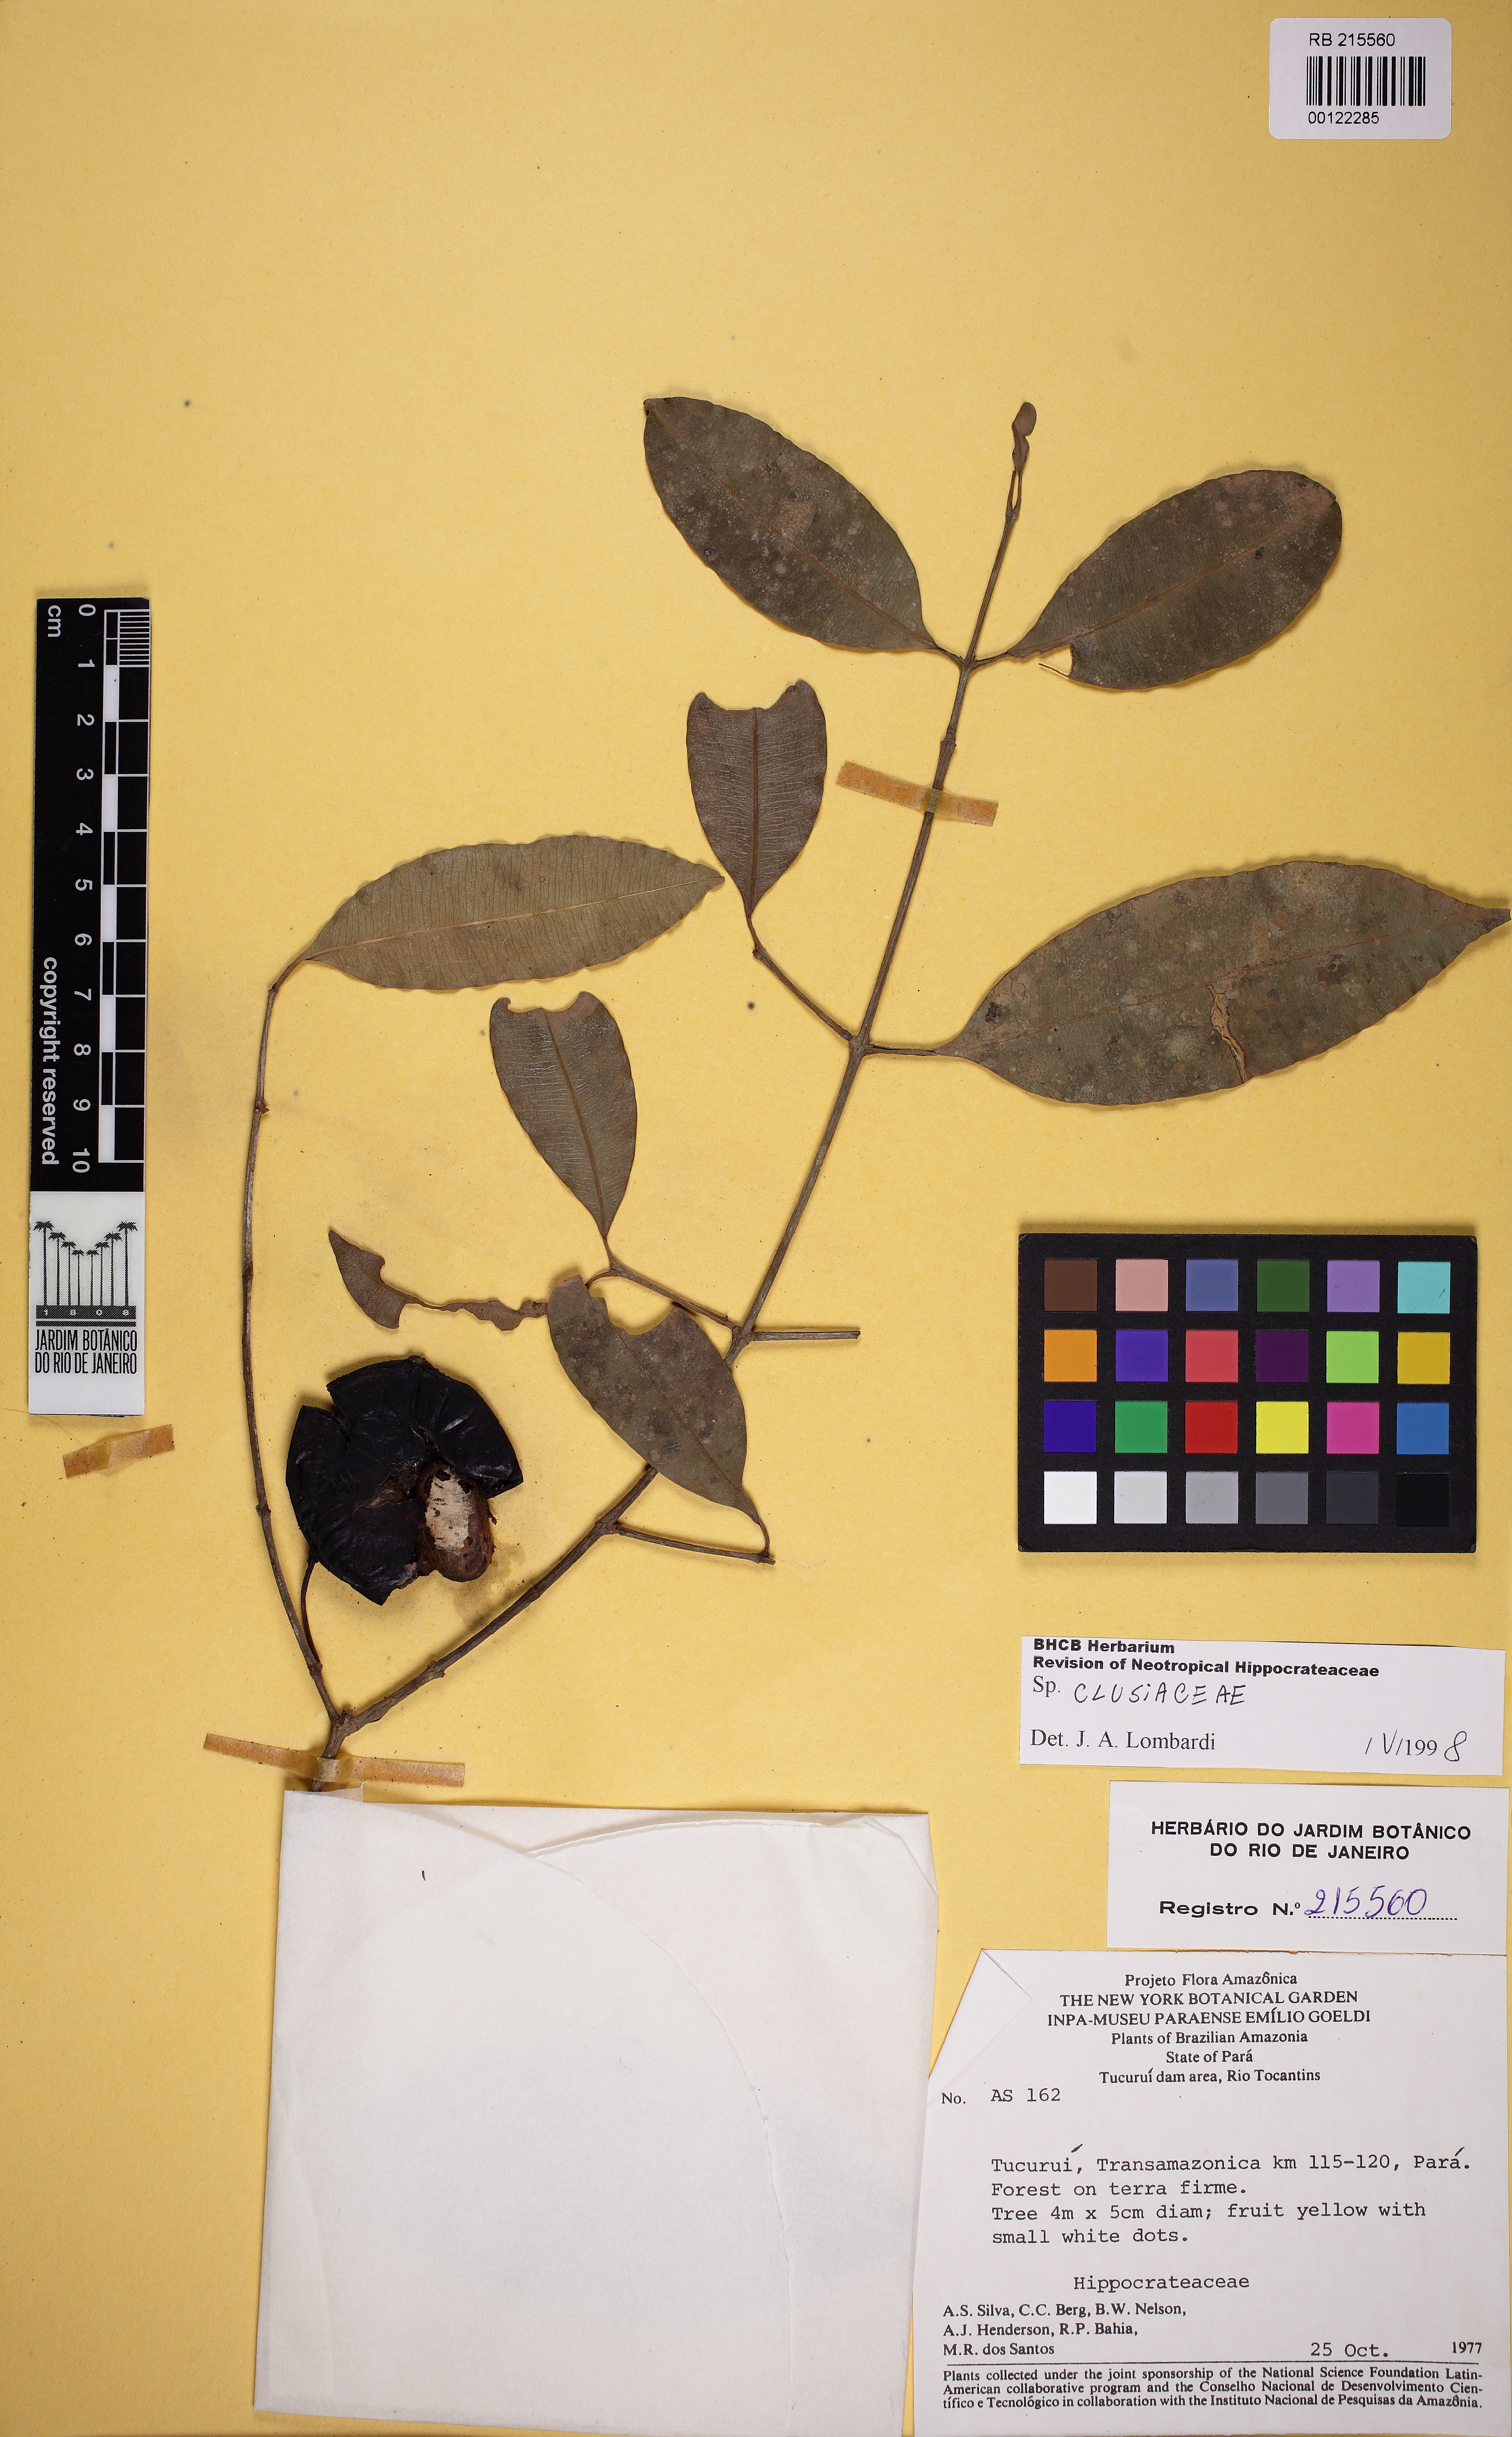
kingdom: Plantae
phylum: Tracheophyta
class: Magnoliopsida
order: Malpighiales
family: Clusiaceae
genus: Garcinia
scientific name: Garcinia gardneriana
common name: Achacha
